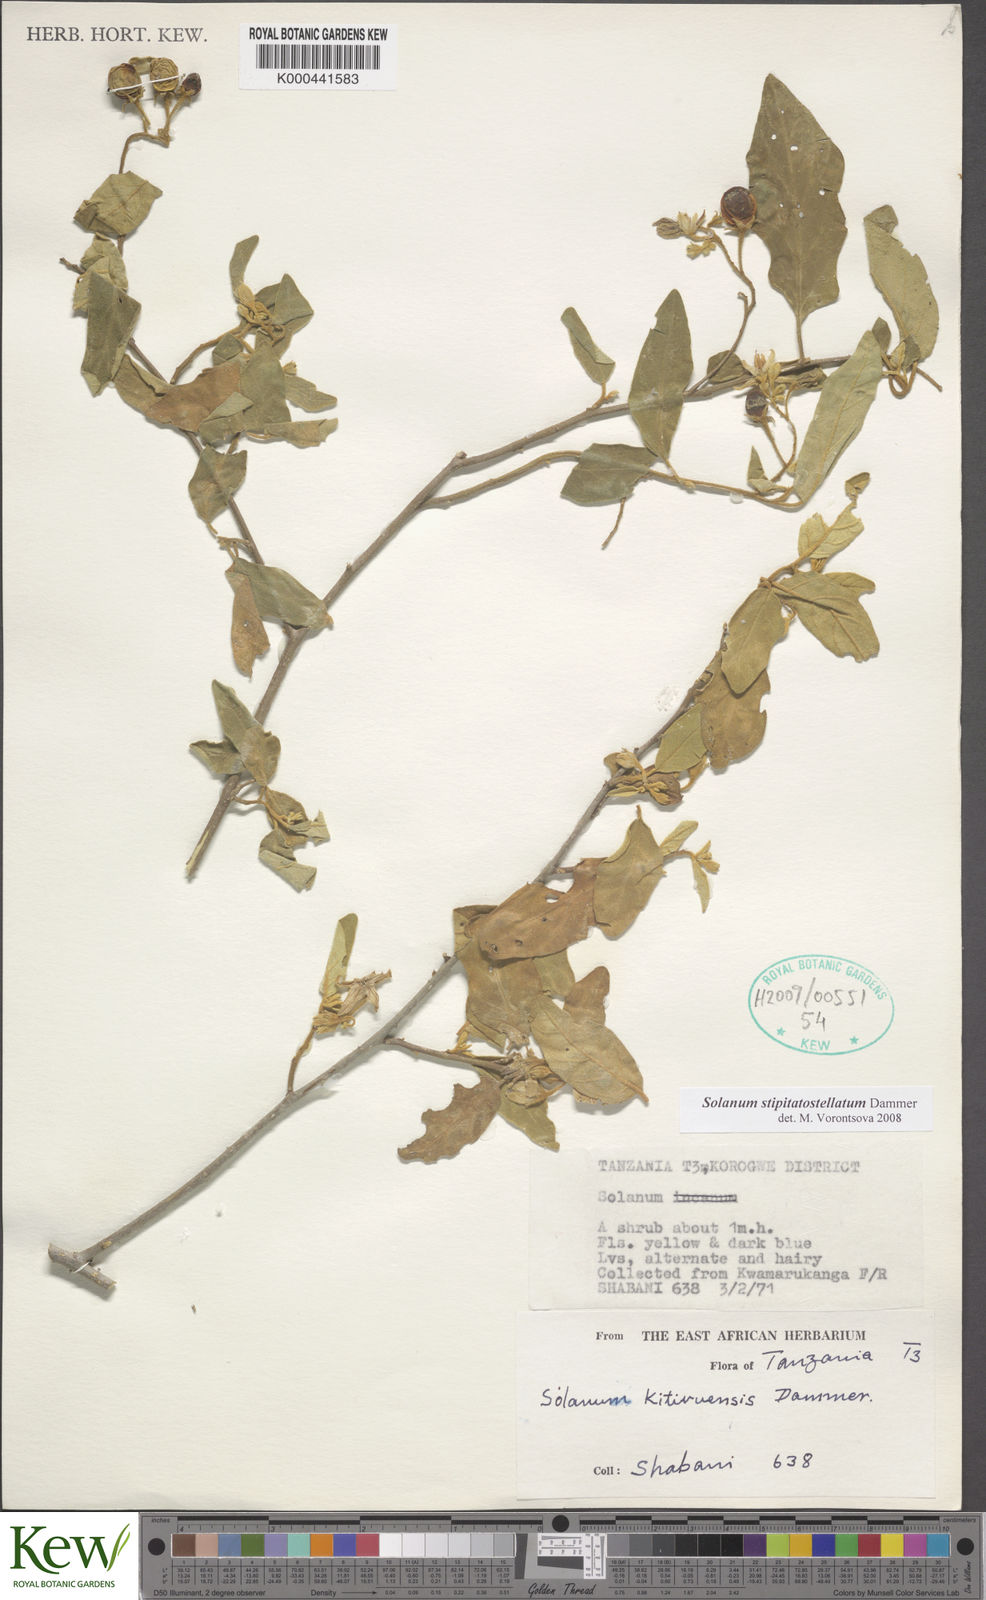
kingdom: Plantae
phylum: Tracheophyta
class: Magnoliopsida
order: Solanales
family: Solanaceae
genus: Solanum
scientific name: Solanum stipitatostellatum
